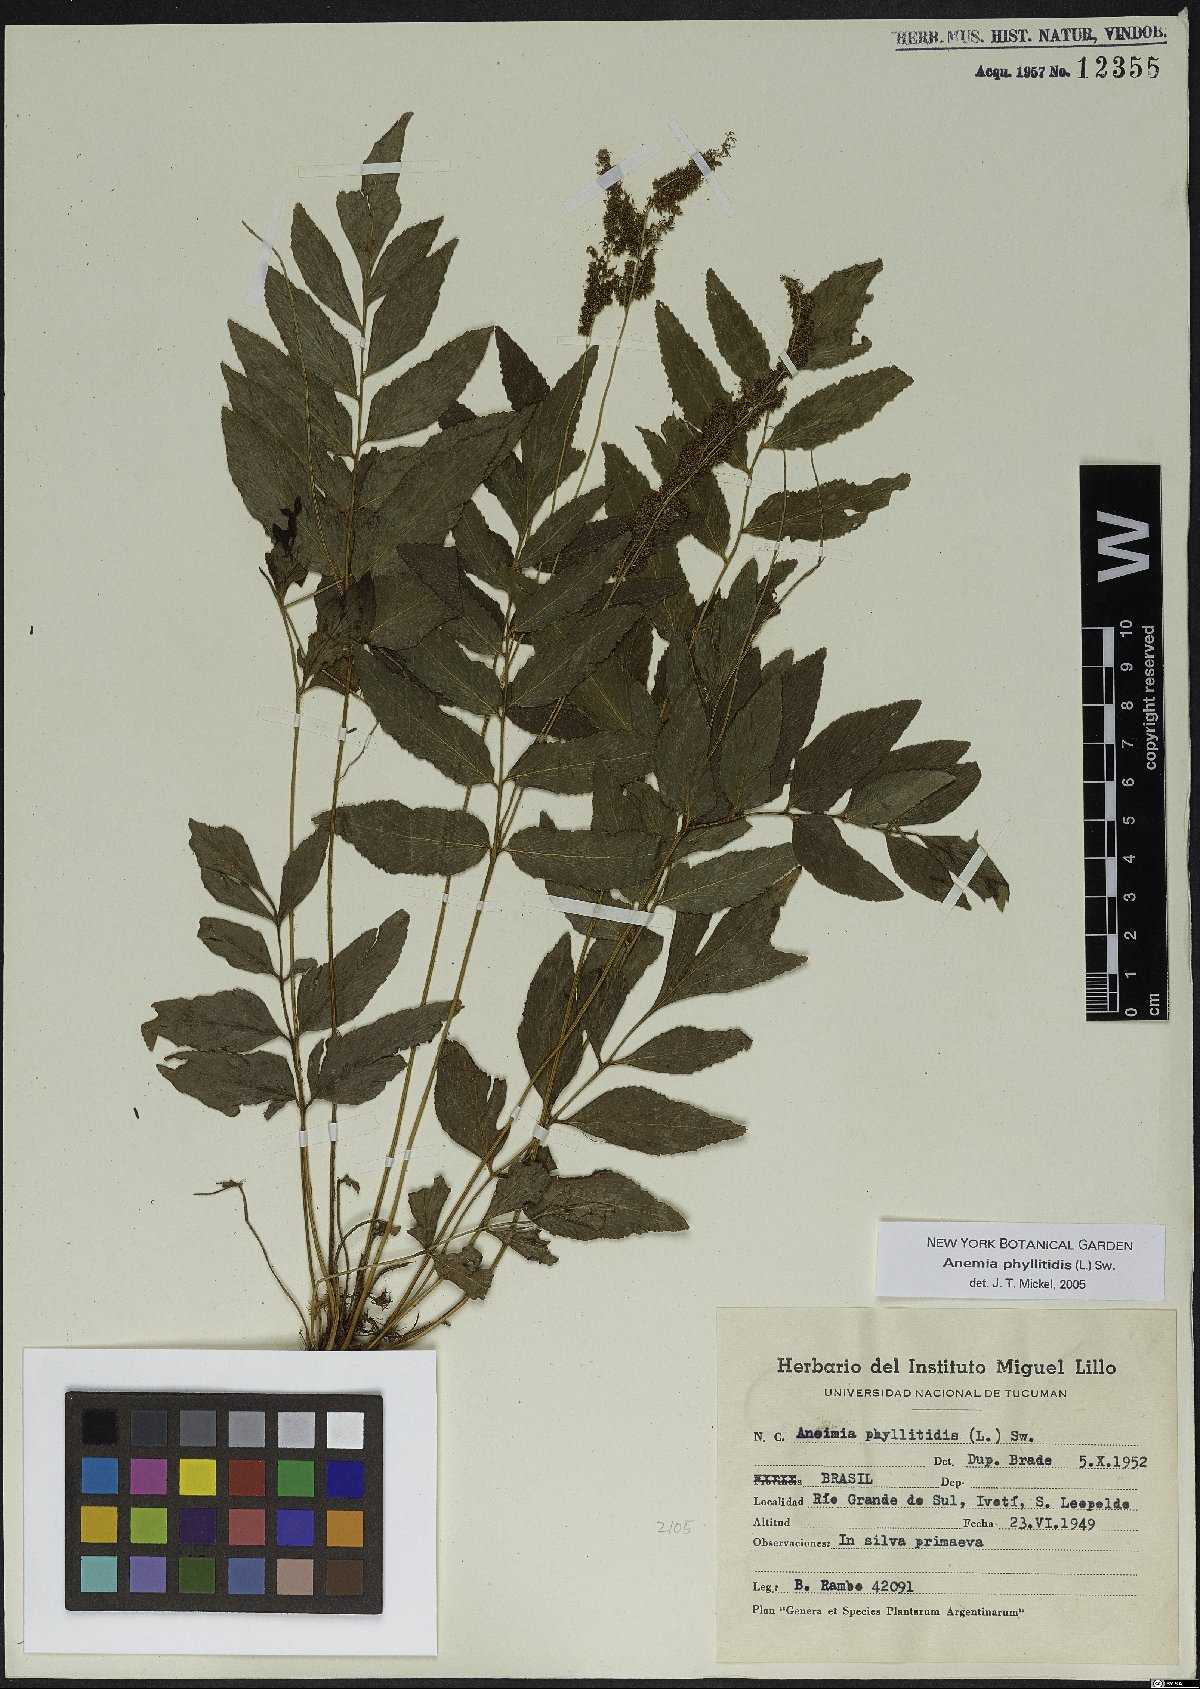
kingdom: Plantae
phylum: Tracheophyta
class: Polypodiopsida
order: Schizaeales
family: Anemiaceae
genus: Anemia
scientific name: Anemia phyllitidis
